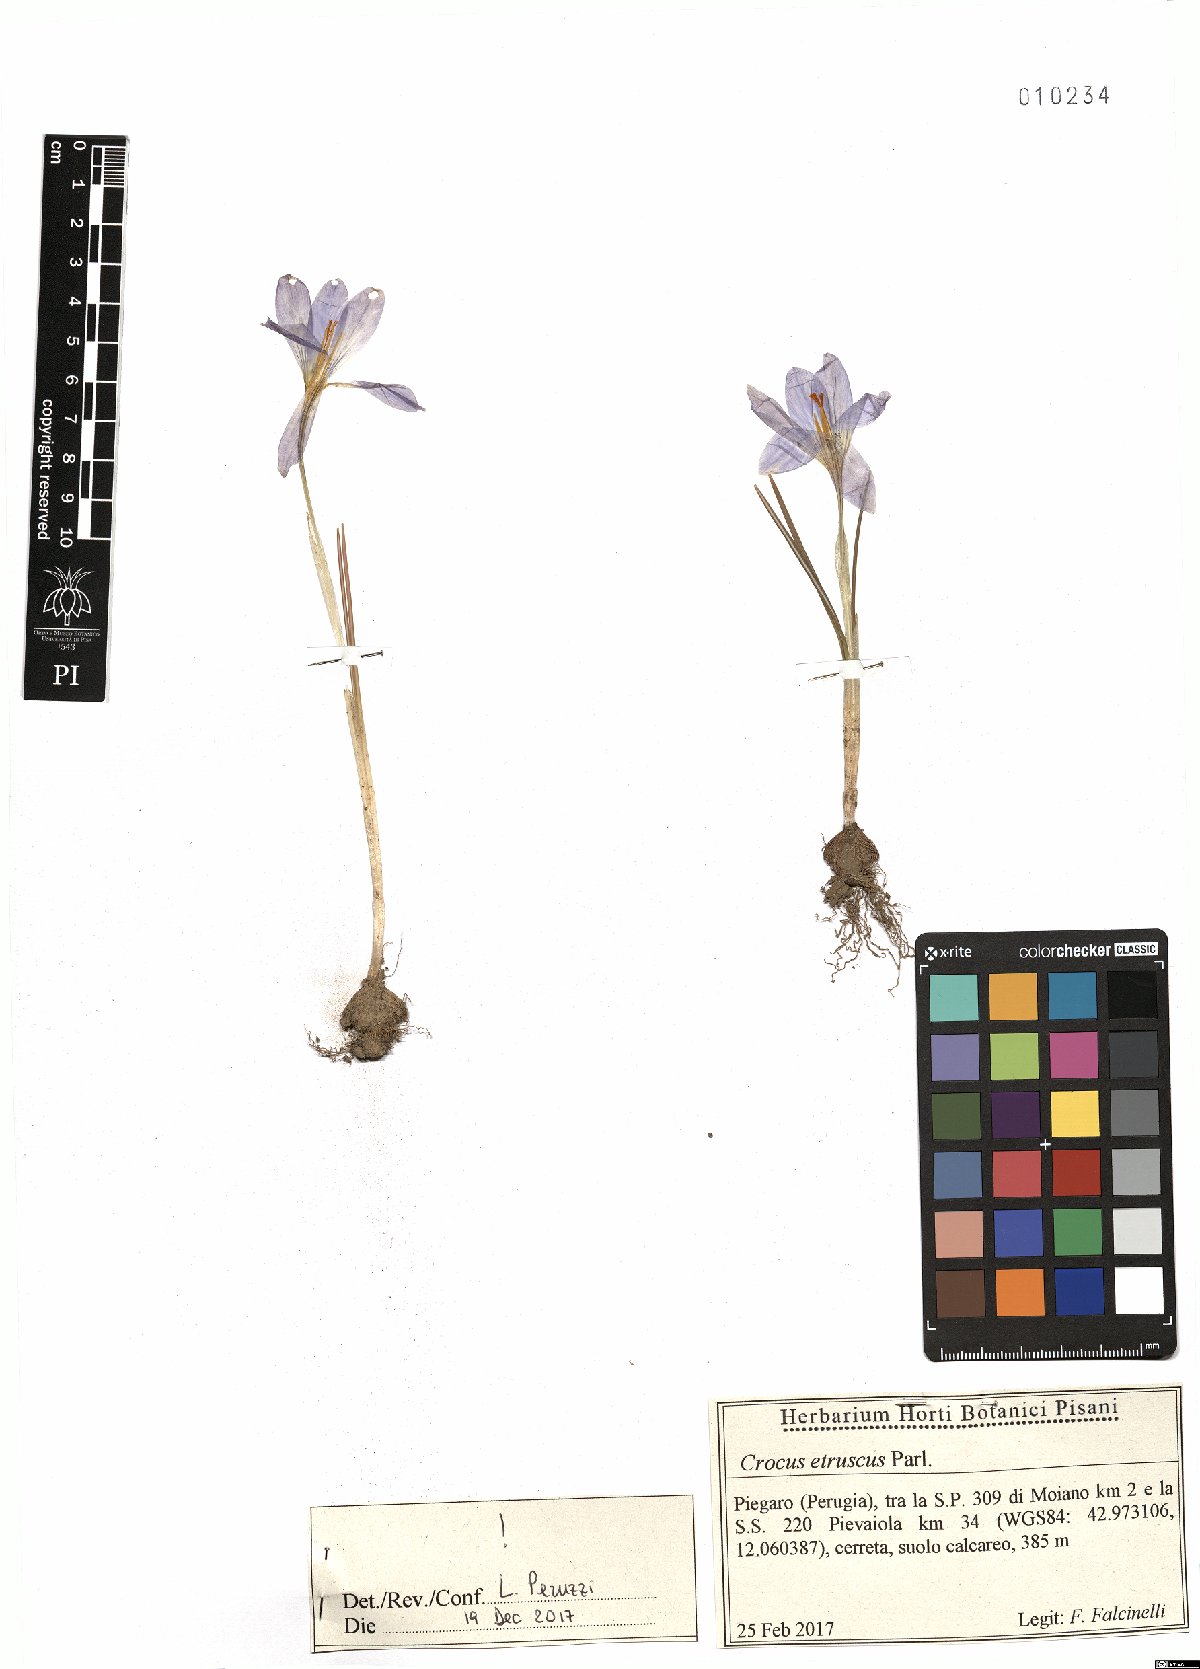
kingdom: Plantae
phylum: Tracheophyta
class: Liliopsida
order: Asparagales
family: Iridaceae
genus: Crocus
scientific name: Crocus etruscus
